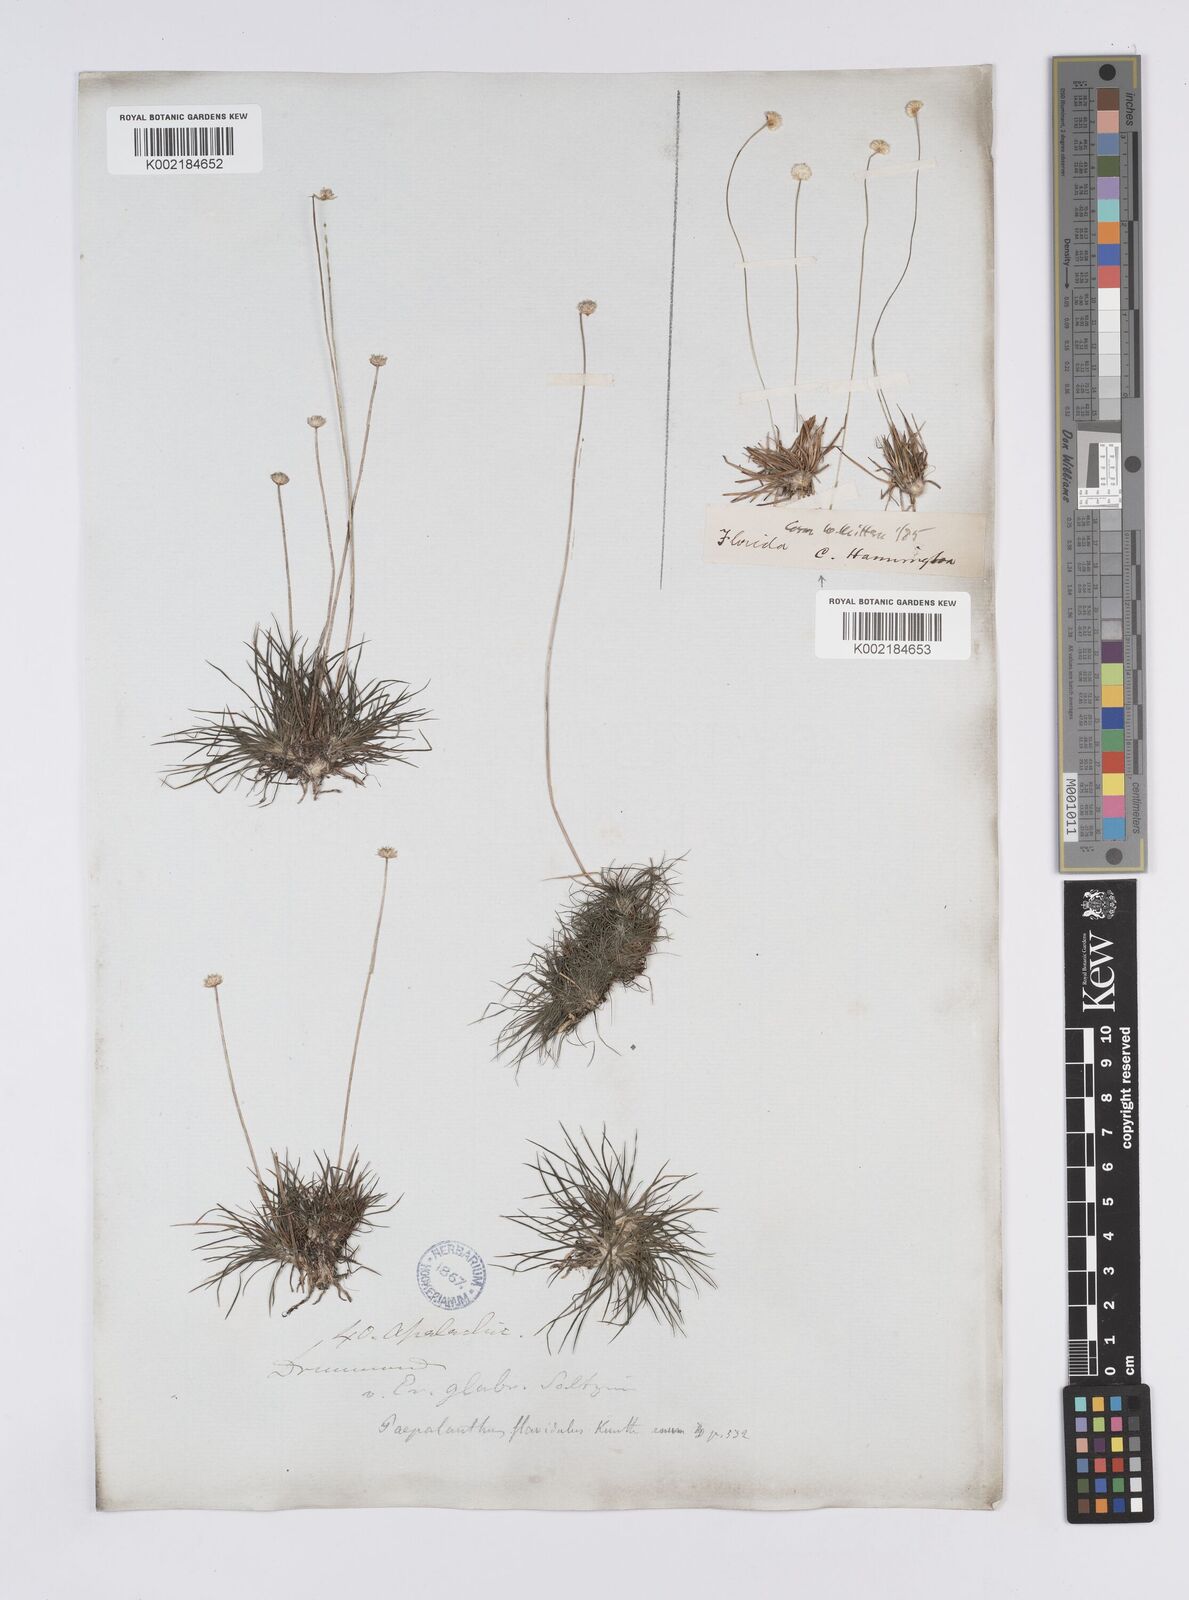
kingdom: Plantae
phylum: Tracheophyta
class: Liliopsida
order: Poales
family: Eriocaulaceae
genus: Syngonanthus
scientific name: Syngonanthus flavidulus
